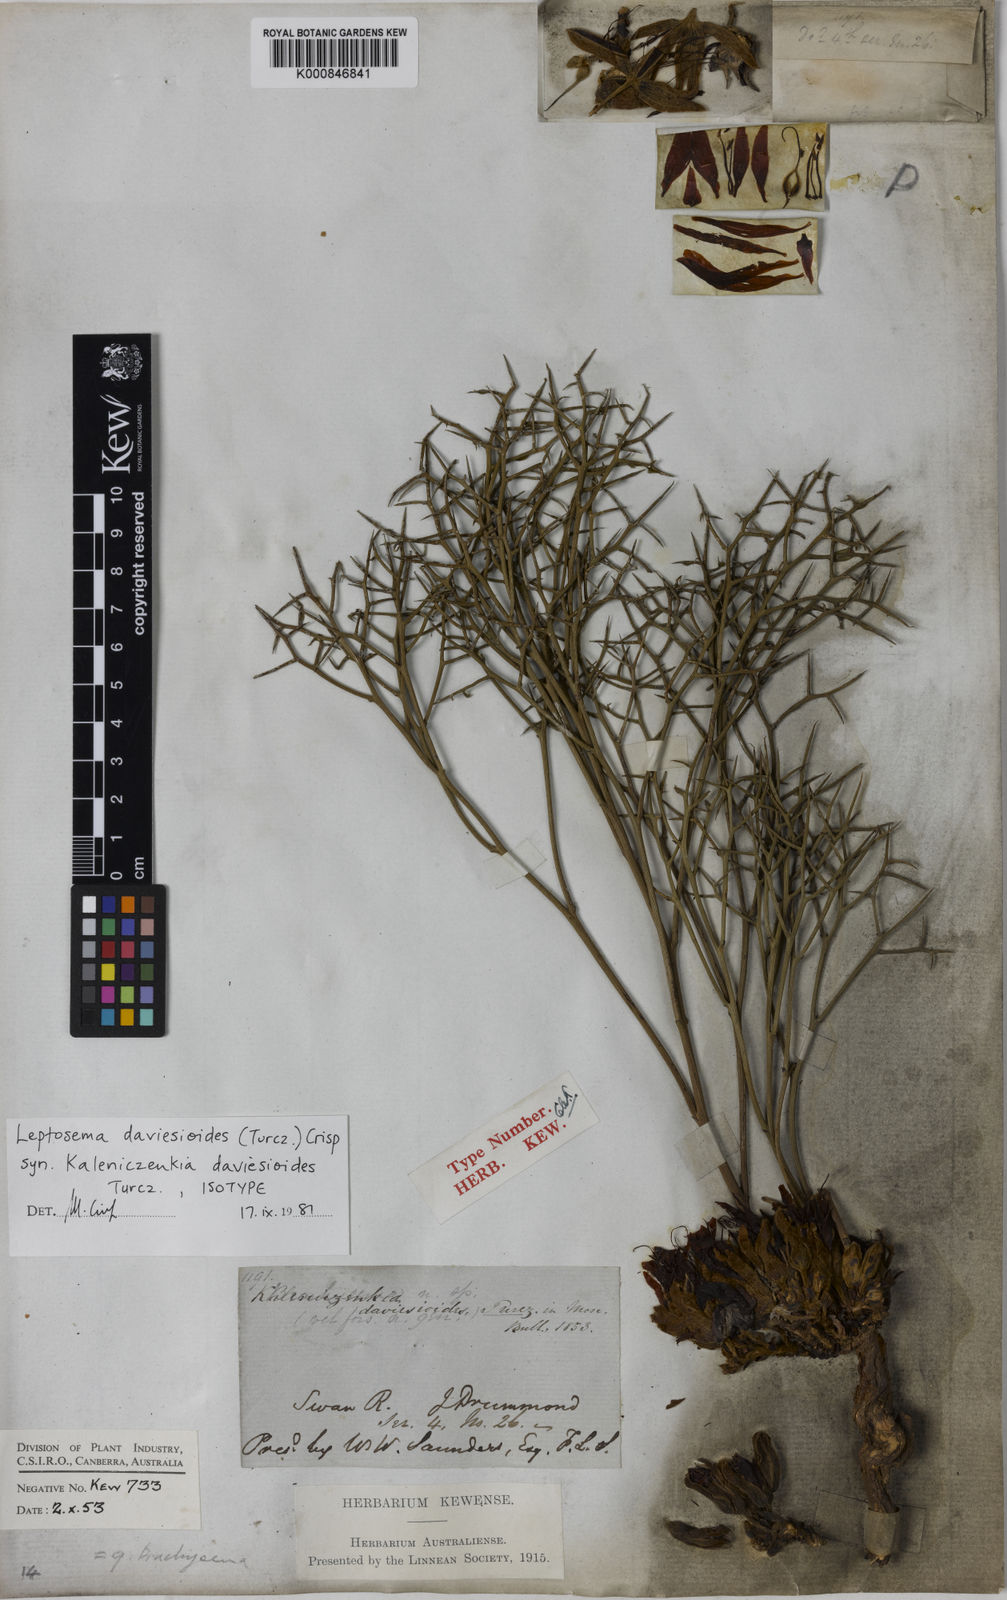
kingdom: Plantae
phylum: Tracheophyta
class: Magnoliopsida
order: Fabales
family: Fabaceae
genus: Leptosema
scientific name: Leptosema daviesioides
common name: Upside-down pea-bush
